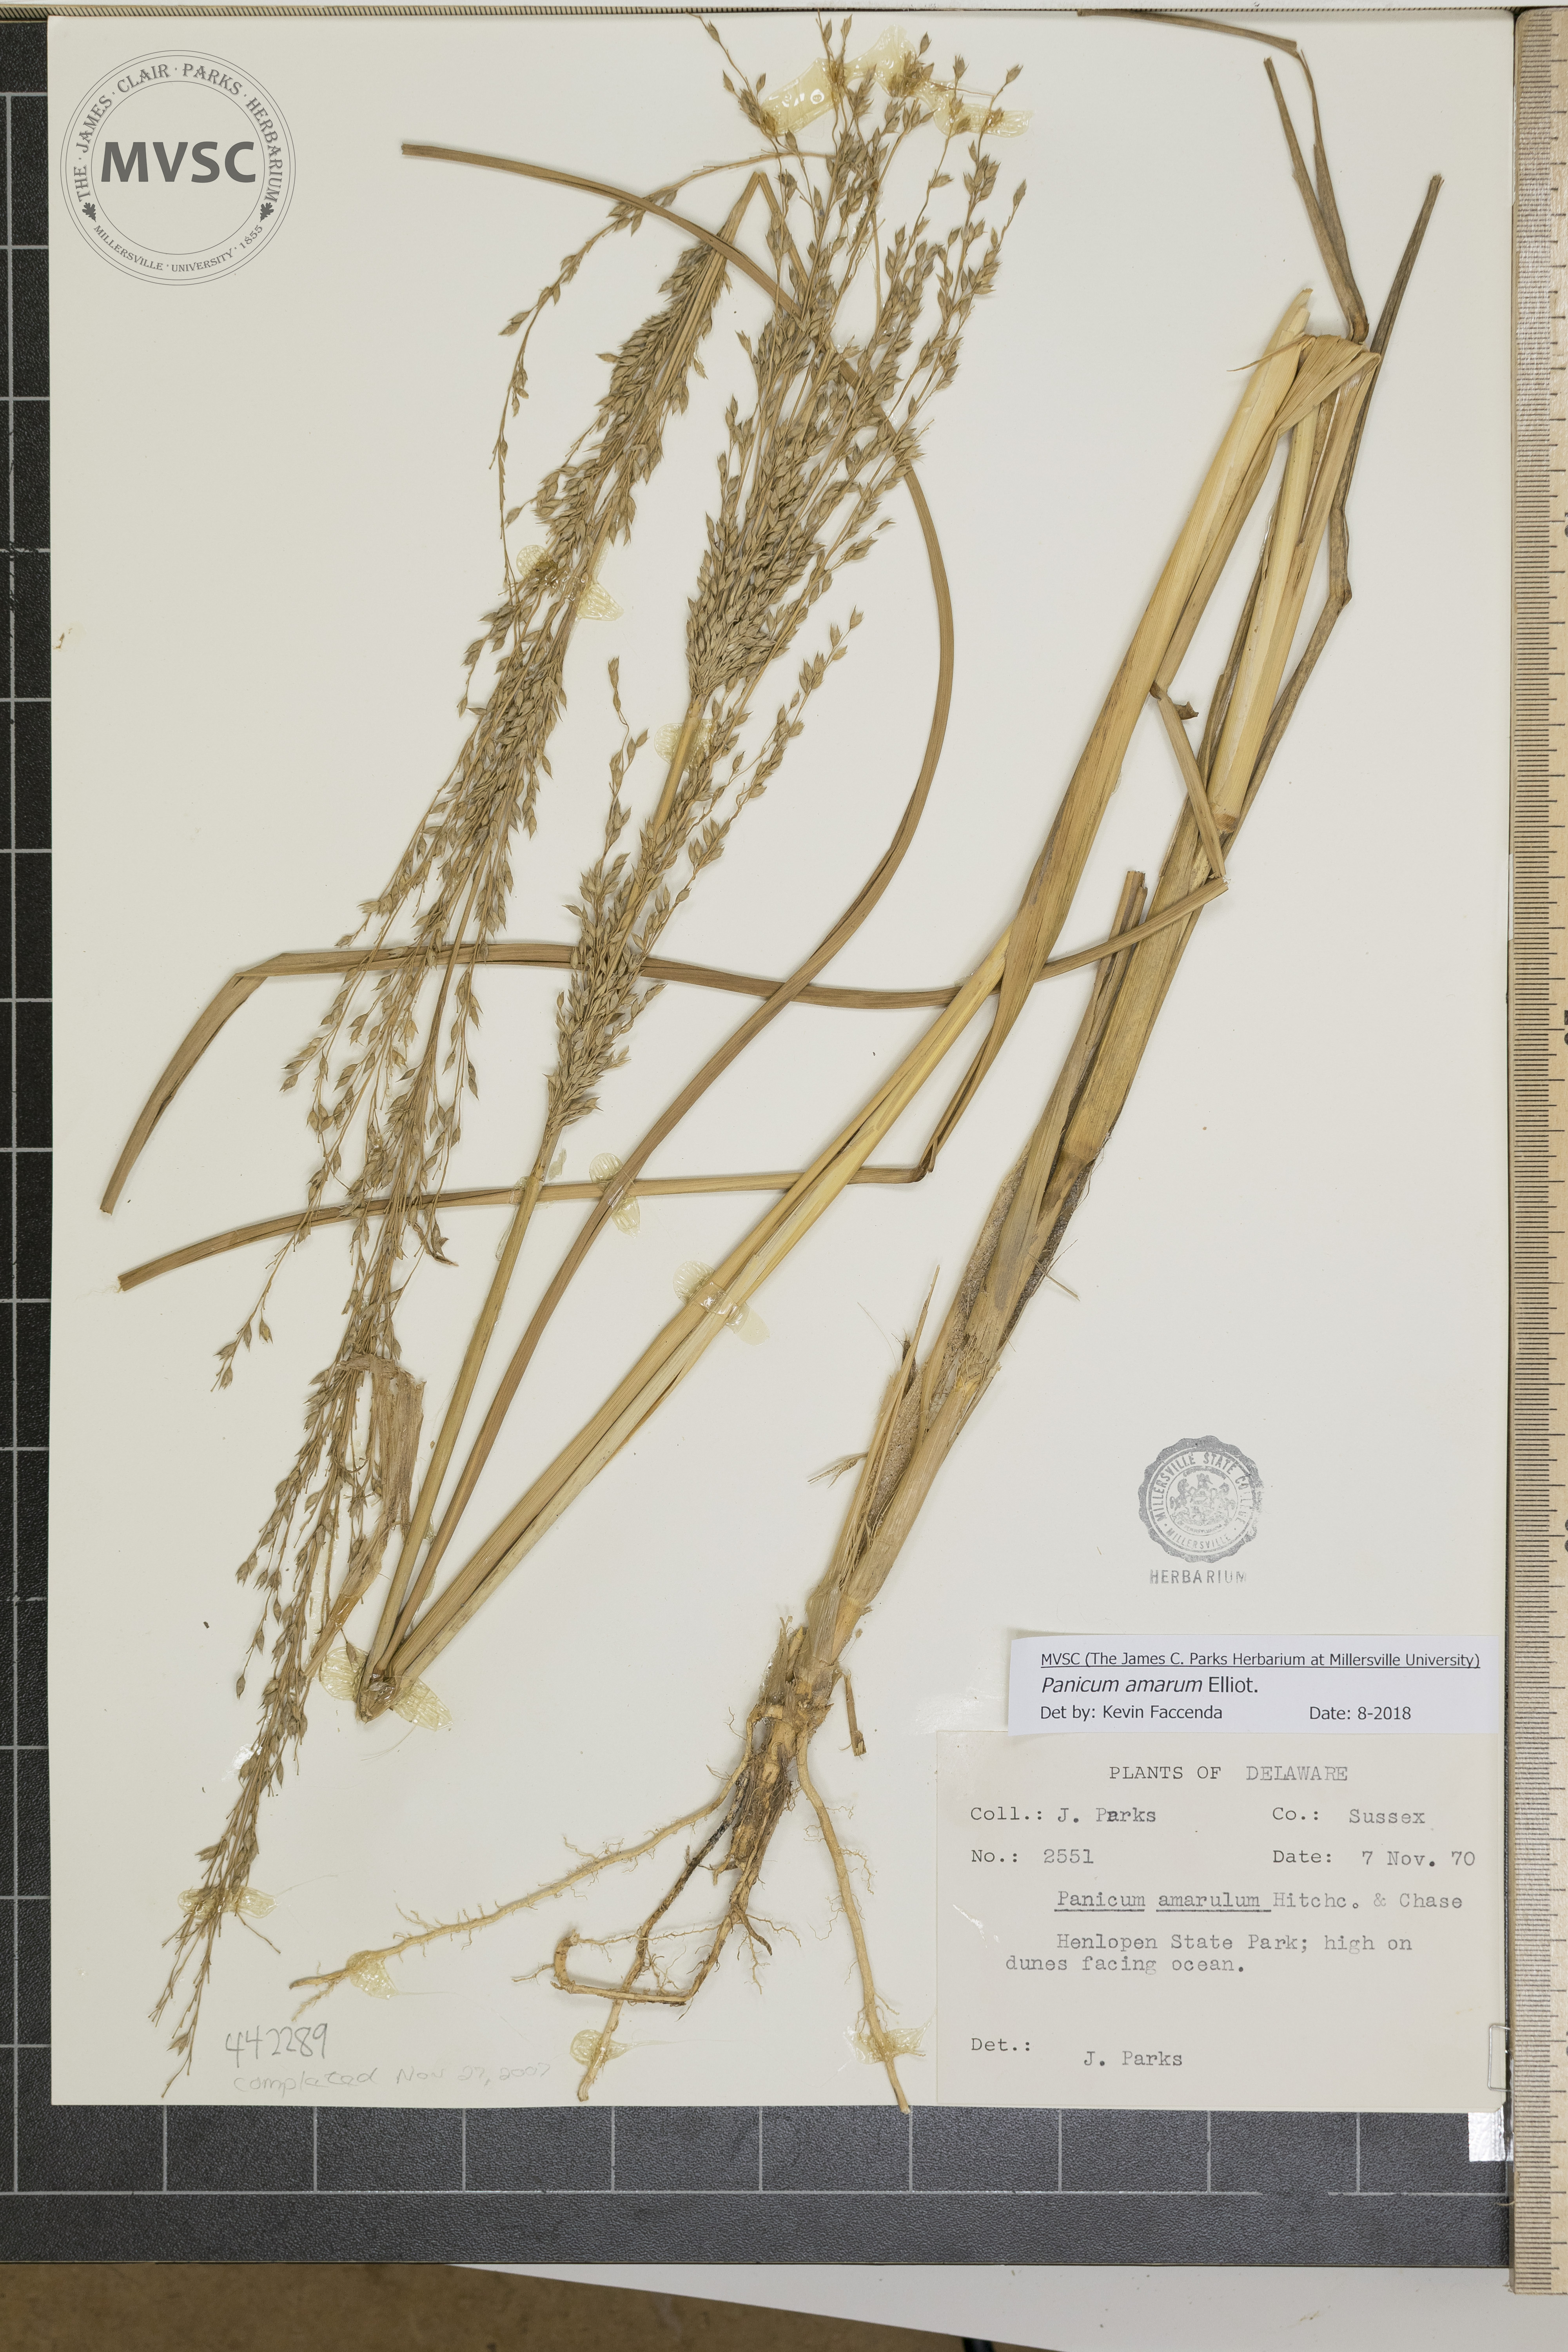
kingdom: Plantae
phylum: Tracheophyta
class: Liliopsida
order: Poales
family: Poaceae
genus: Panicum
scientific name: Panicum amarum
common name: Bitter panicum
